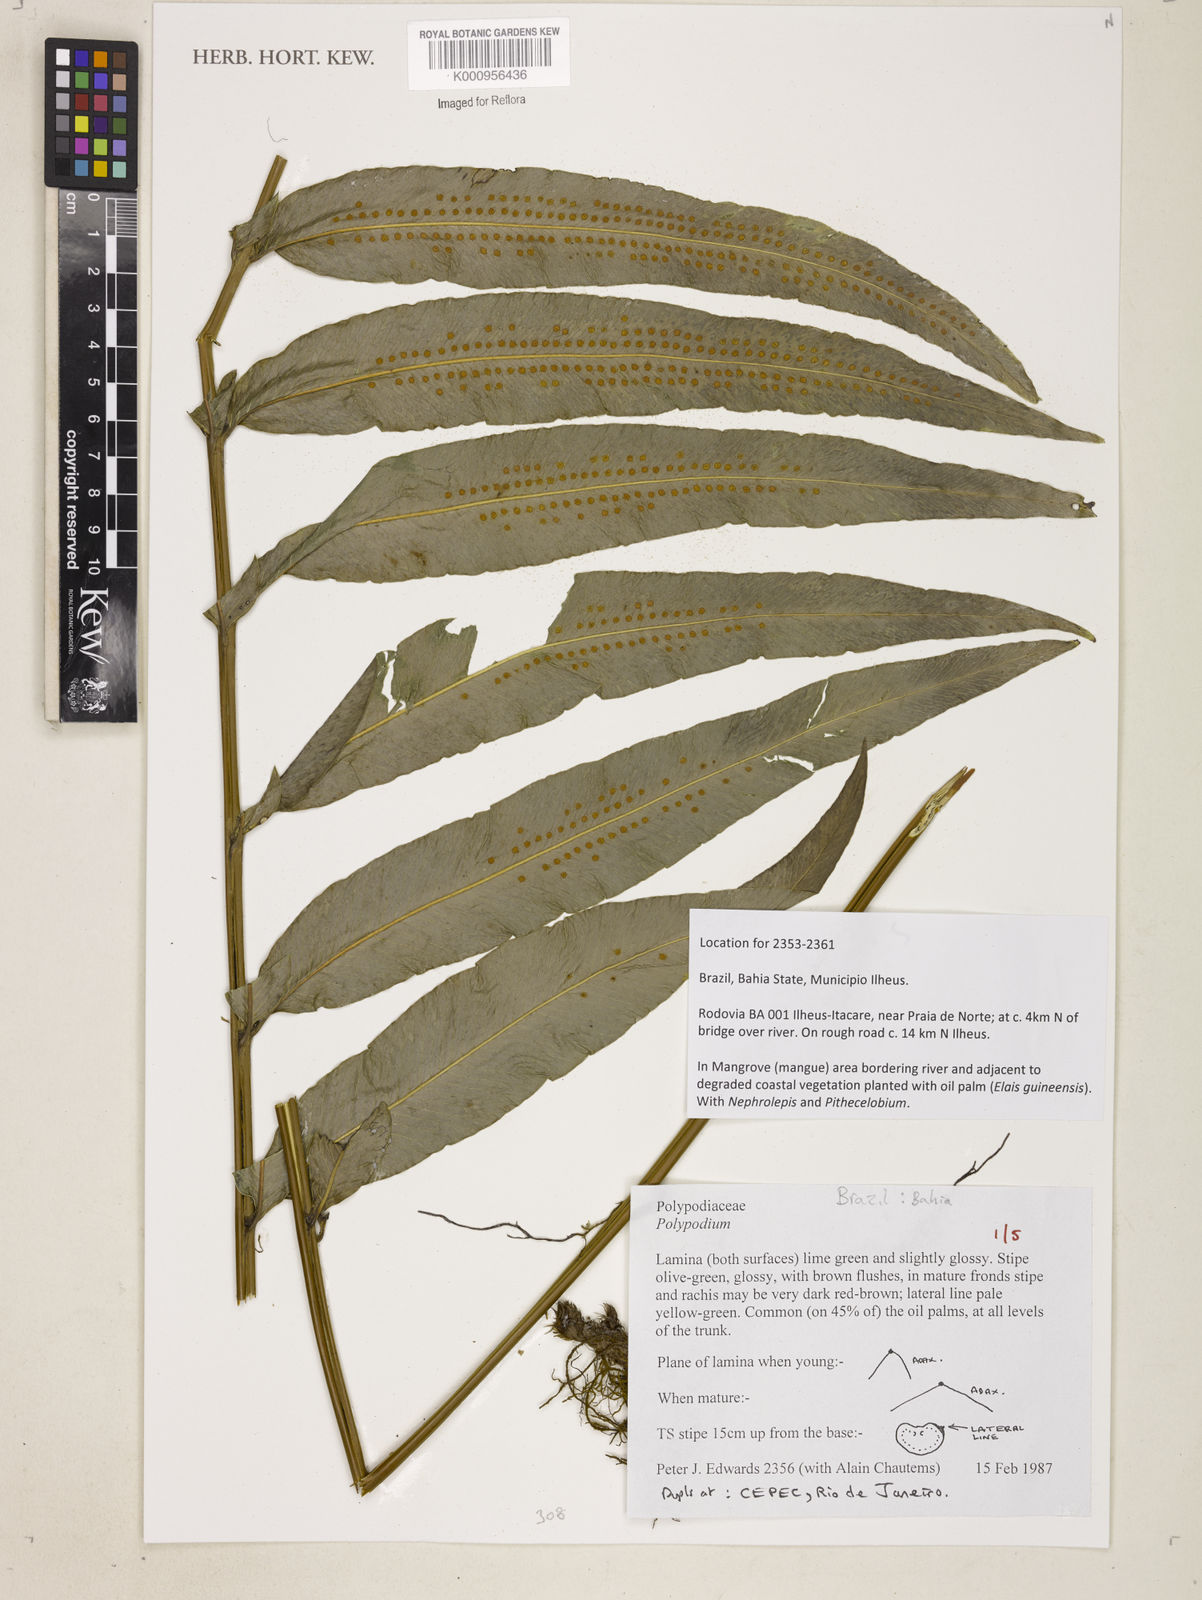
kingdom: Plantae
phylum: Tracheophyta
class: Polypodiopsida
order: Polypodiales
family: Polypodiaceae
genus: Polypodium
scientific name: Polypodium
